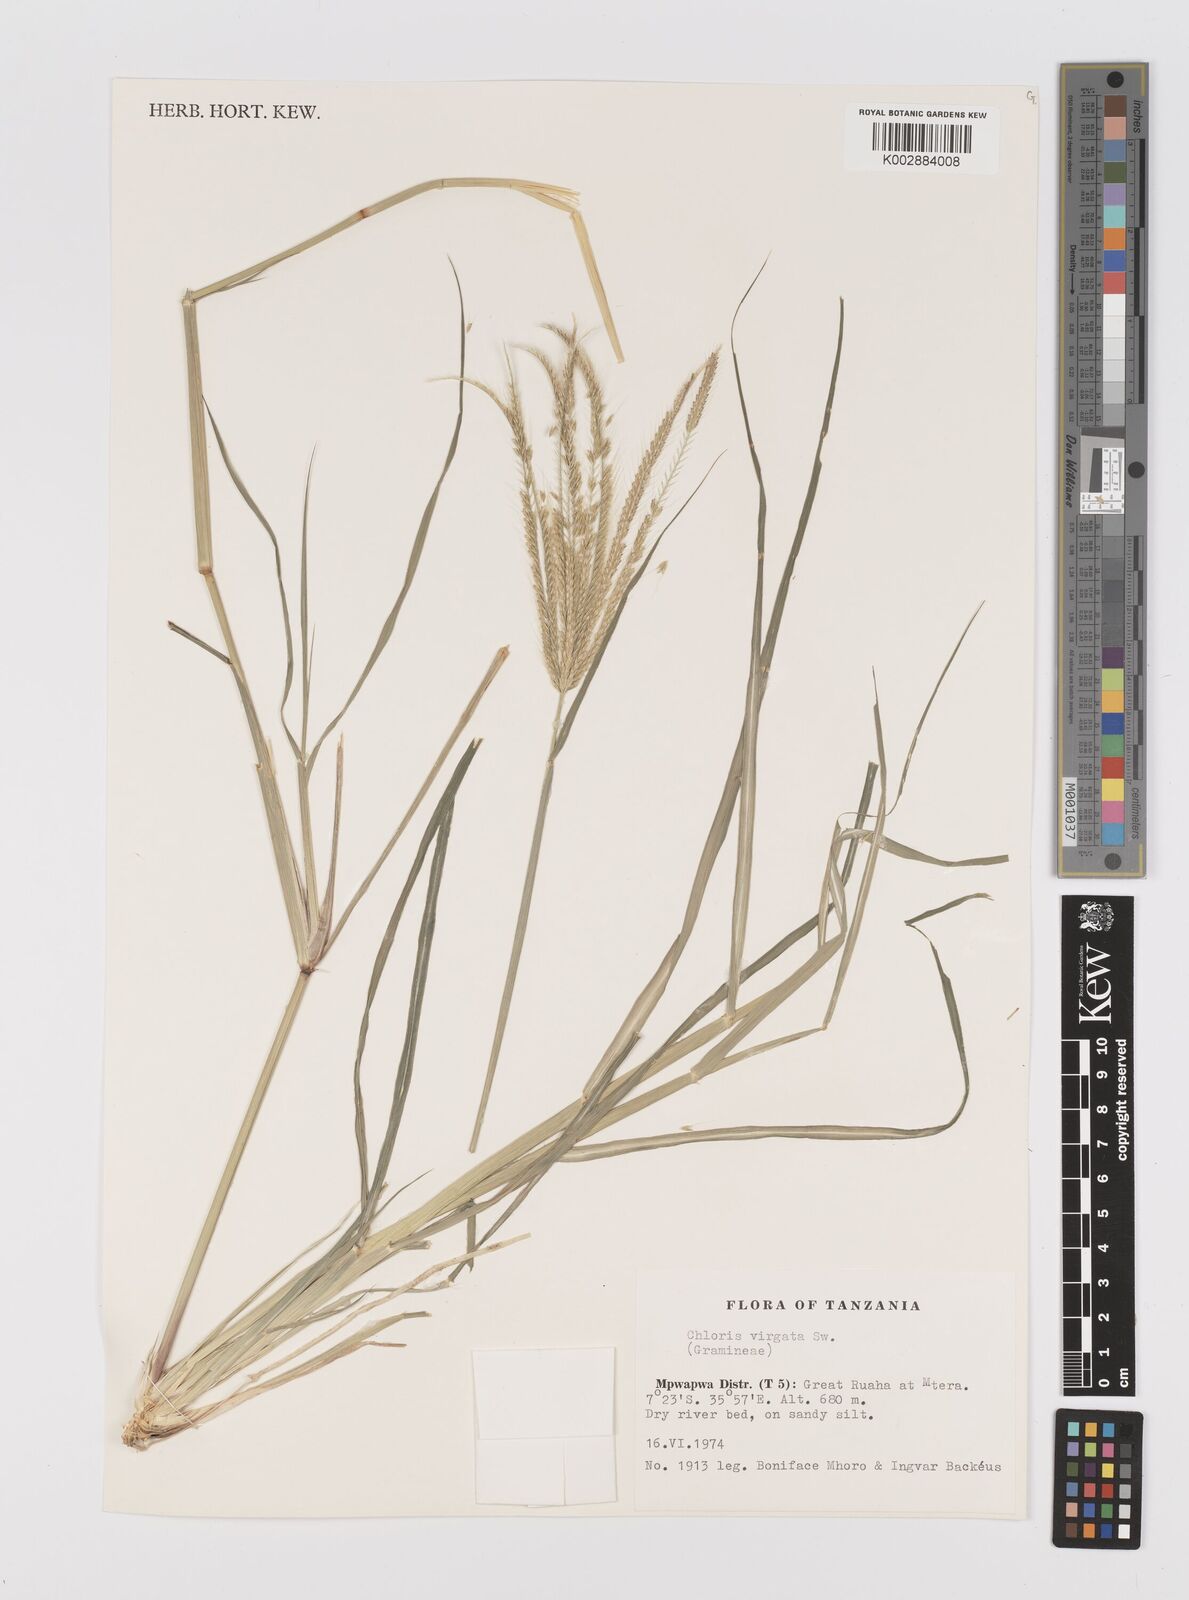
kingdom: Plantae
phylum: Tracheophyta
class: Liliopsida
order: Poales
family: Poaceae
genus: Chloris
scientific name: Chloris virgata
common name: Feathery rhodes-grass
